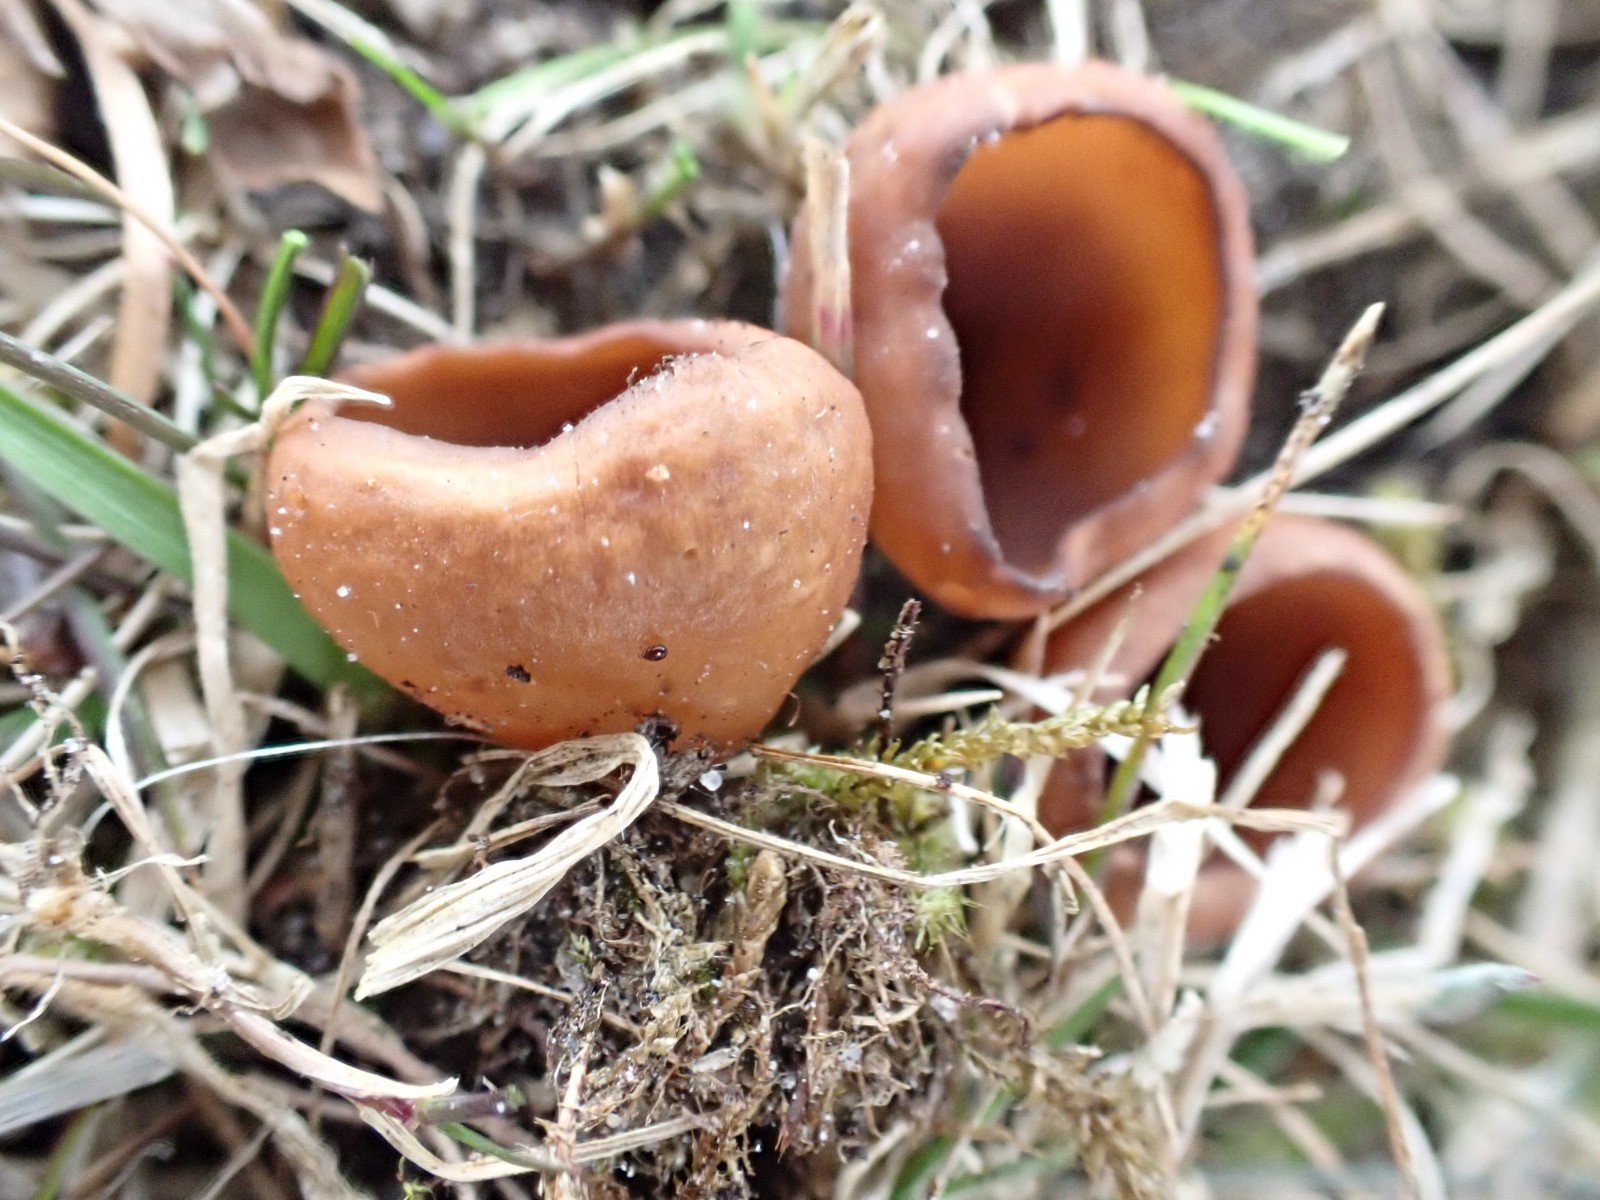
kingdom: Fungi
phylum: Ascomycota
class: Leotiomycetes
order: Helotiales
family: Sclerotiniaceae
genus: Dumontinia
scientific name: Dumontinia tuberosa
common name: anemone-knoldskive
